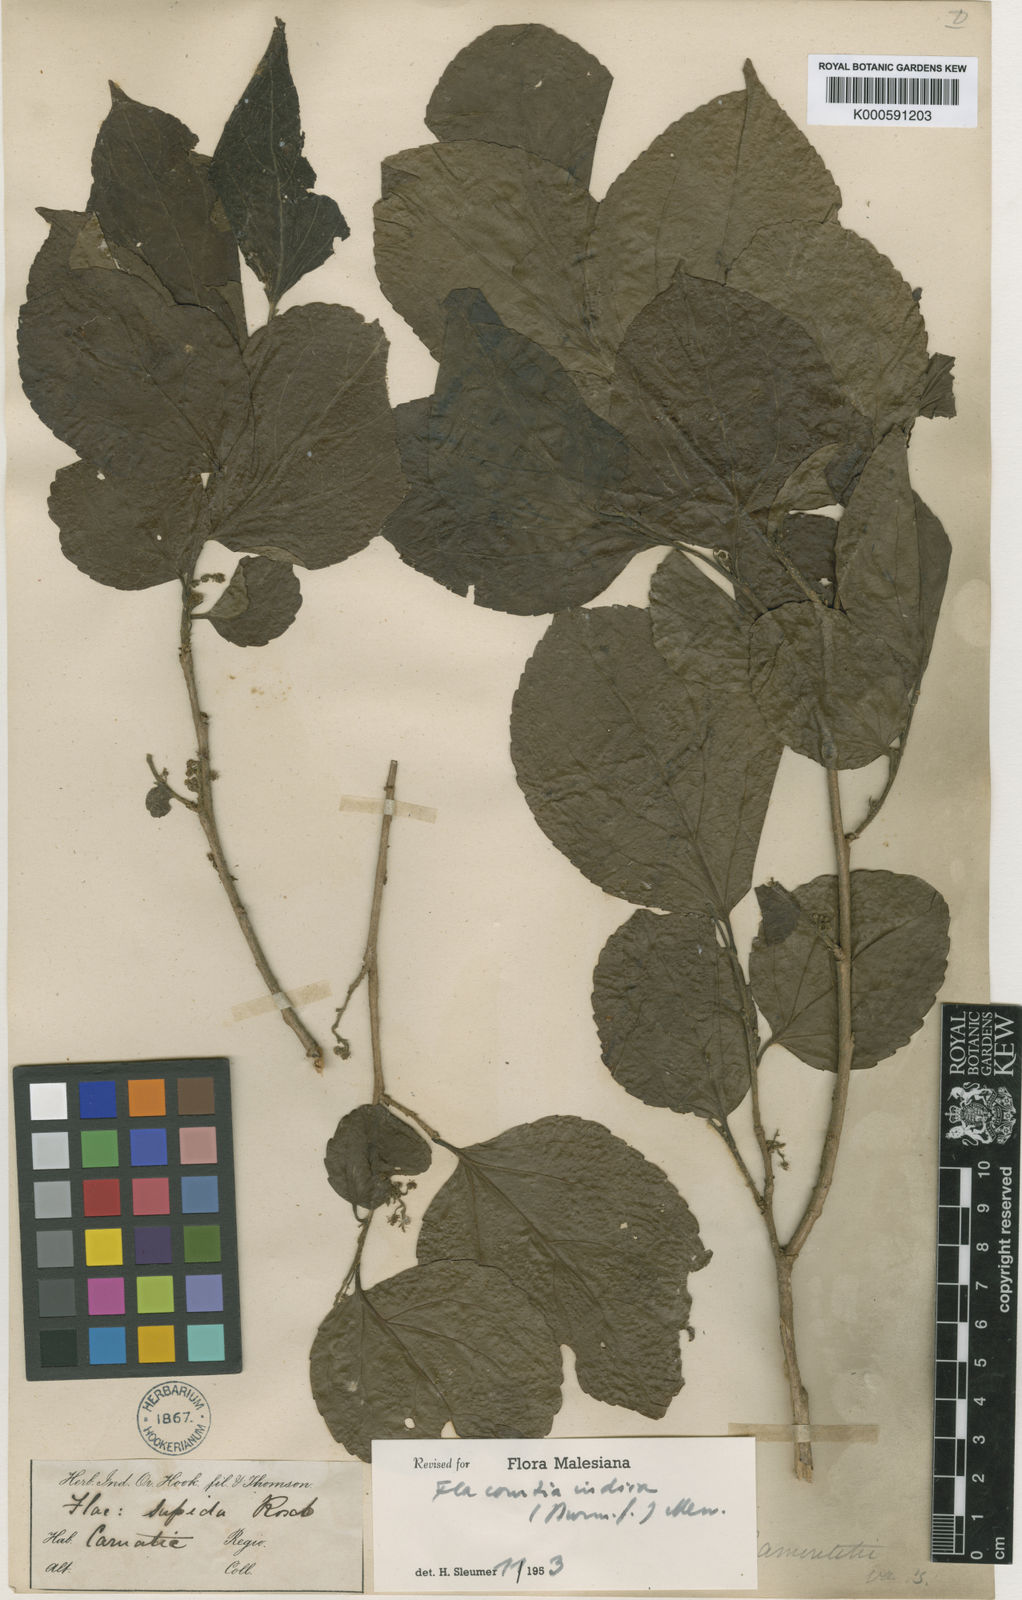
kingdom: Plantae
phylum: Tracheophyta
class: Magnoliopsida
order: Malpighiales
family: Salicaceae
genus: Flacourtia
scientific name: Flacourtia indica
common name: Governor's plum
